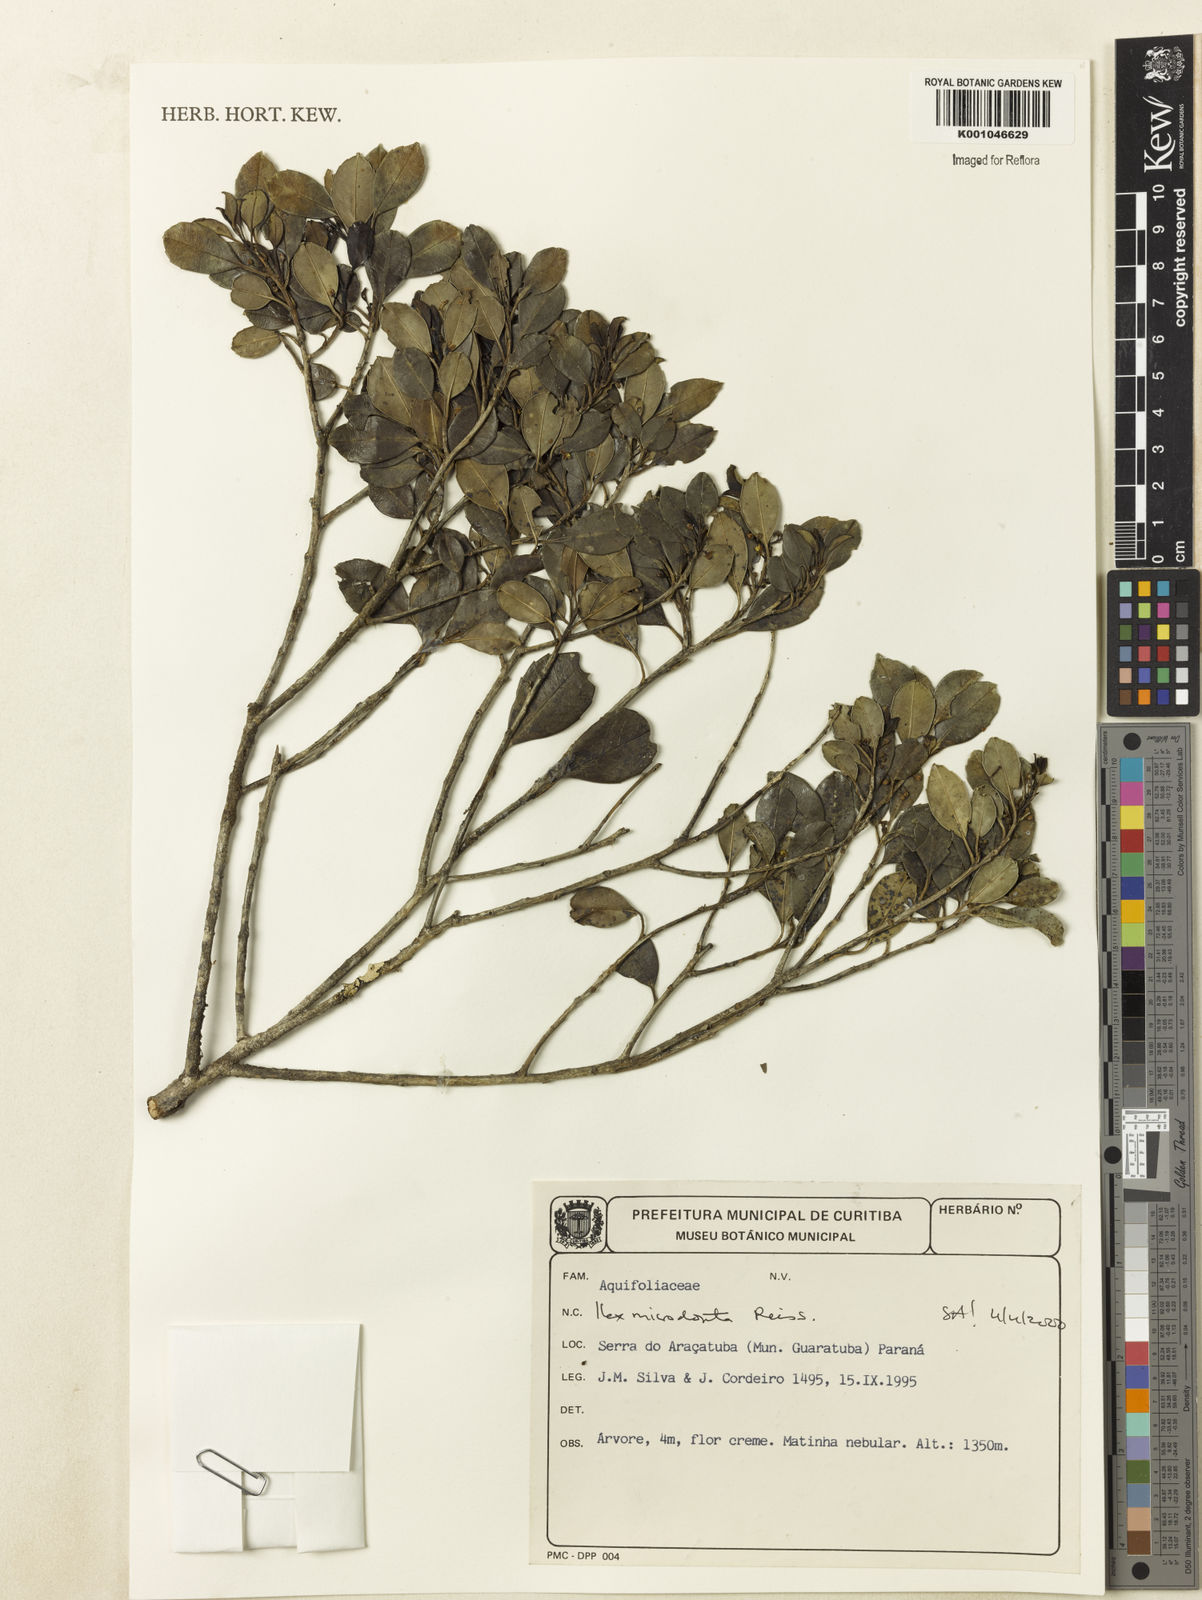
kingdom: Plantae
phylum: Tracheophyta
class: Magnoliopsida
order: Aquifoliales
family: Aquifoliaceae
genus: Ilex
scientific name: Ilex microdonta
